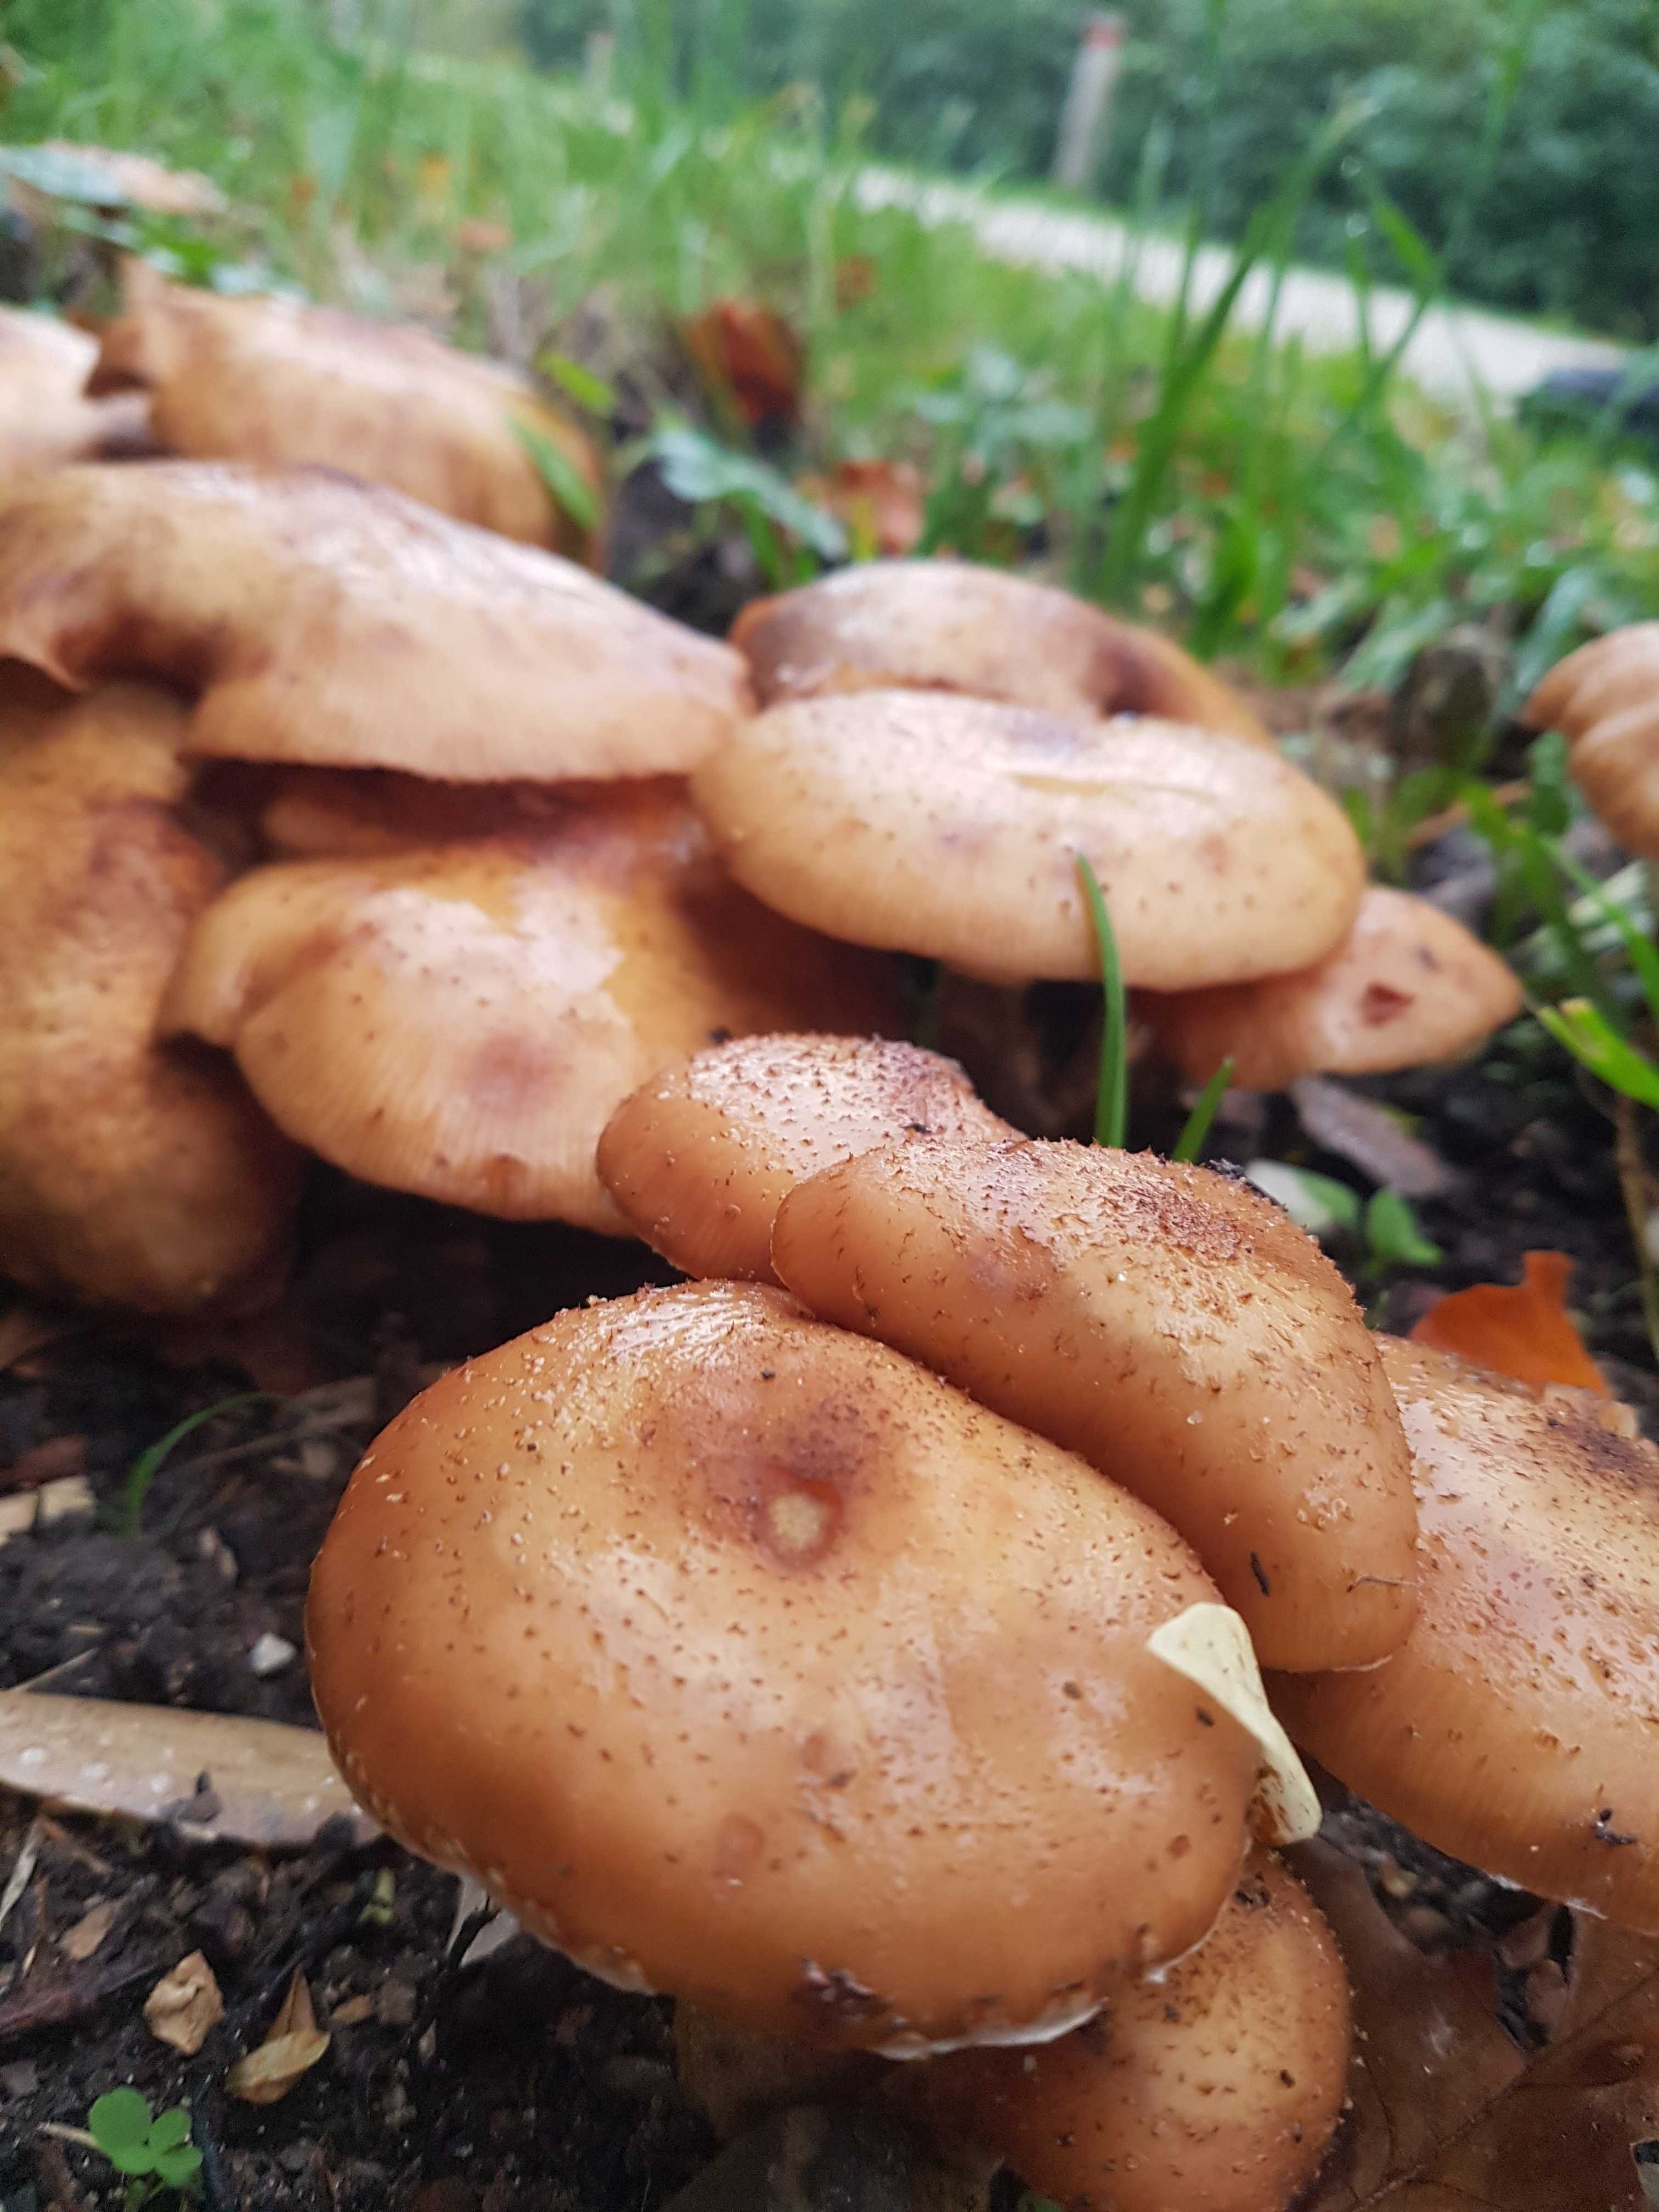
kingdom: Fungi
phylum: Basidiomycota
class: Agaricomycetes
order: Agaricales
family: Physalacriaceae
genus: Armillaria
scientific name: Armillaria lutea
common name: køllestokket honningsvamp
